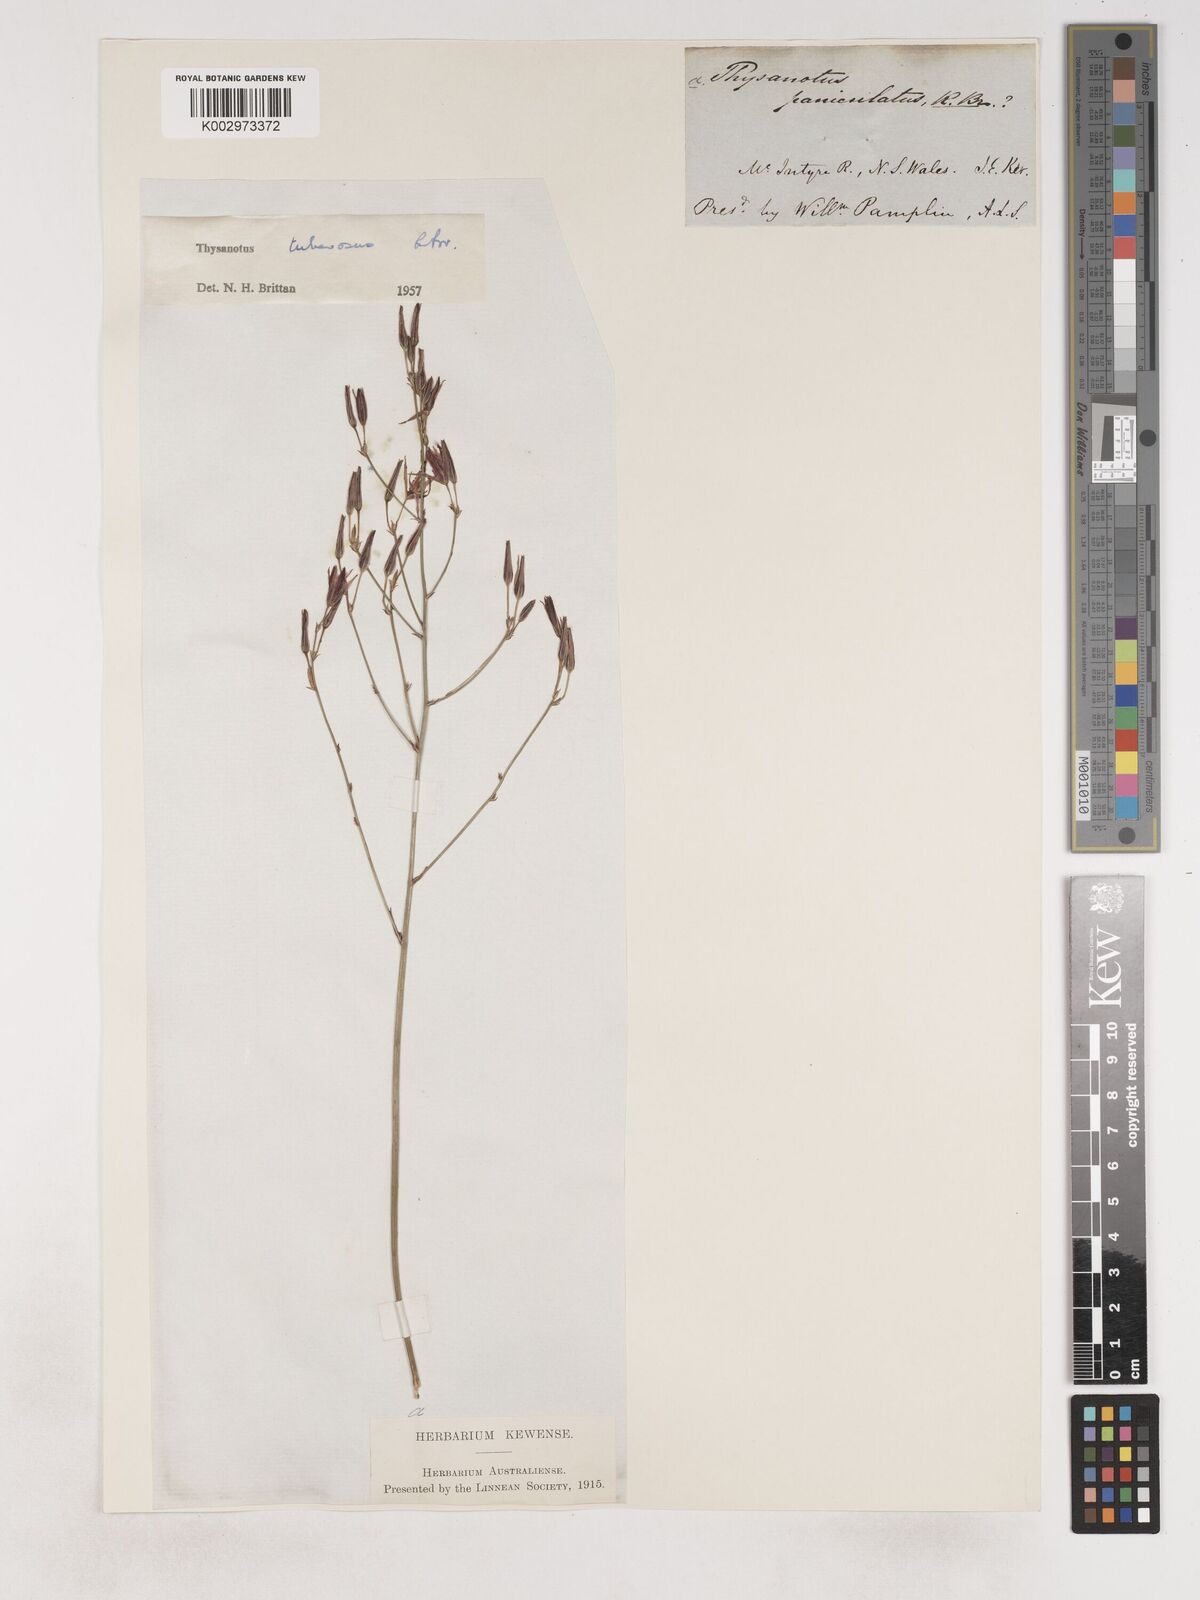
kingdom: Plantae
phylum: Tracheophyta
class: Liliopsida
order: Asparagales
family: Asparagaceae
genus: Thysanotus
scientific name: Thysanotus tuberosus
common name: Common fringed-lily
